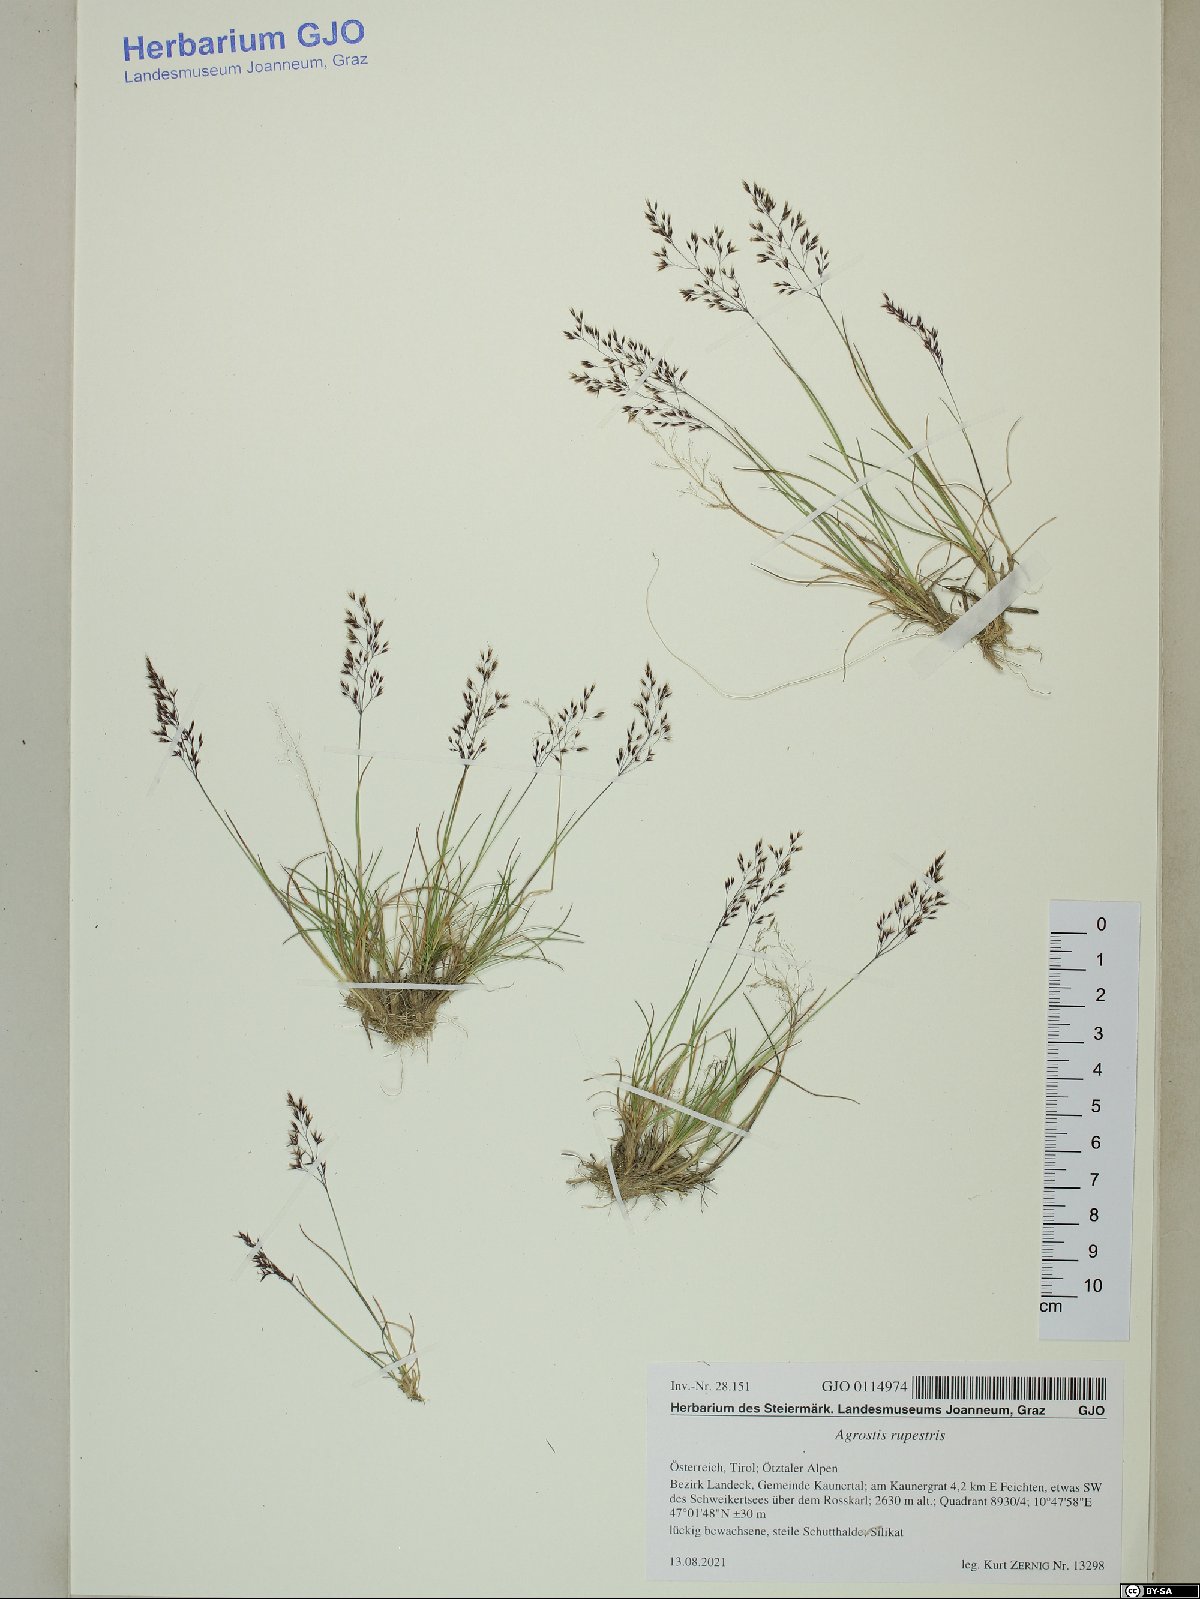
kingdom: Plantae
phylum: Tracheophyta
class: Liliopsida
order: Poales
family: Poaceae
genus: Agrostis
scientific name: Agrostis rupestris
